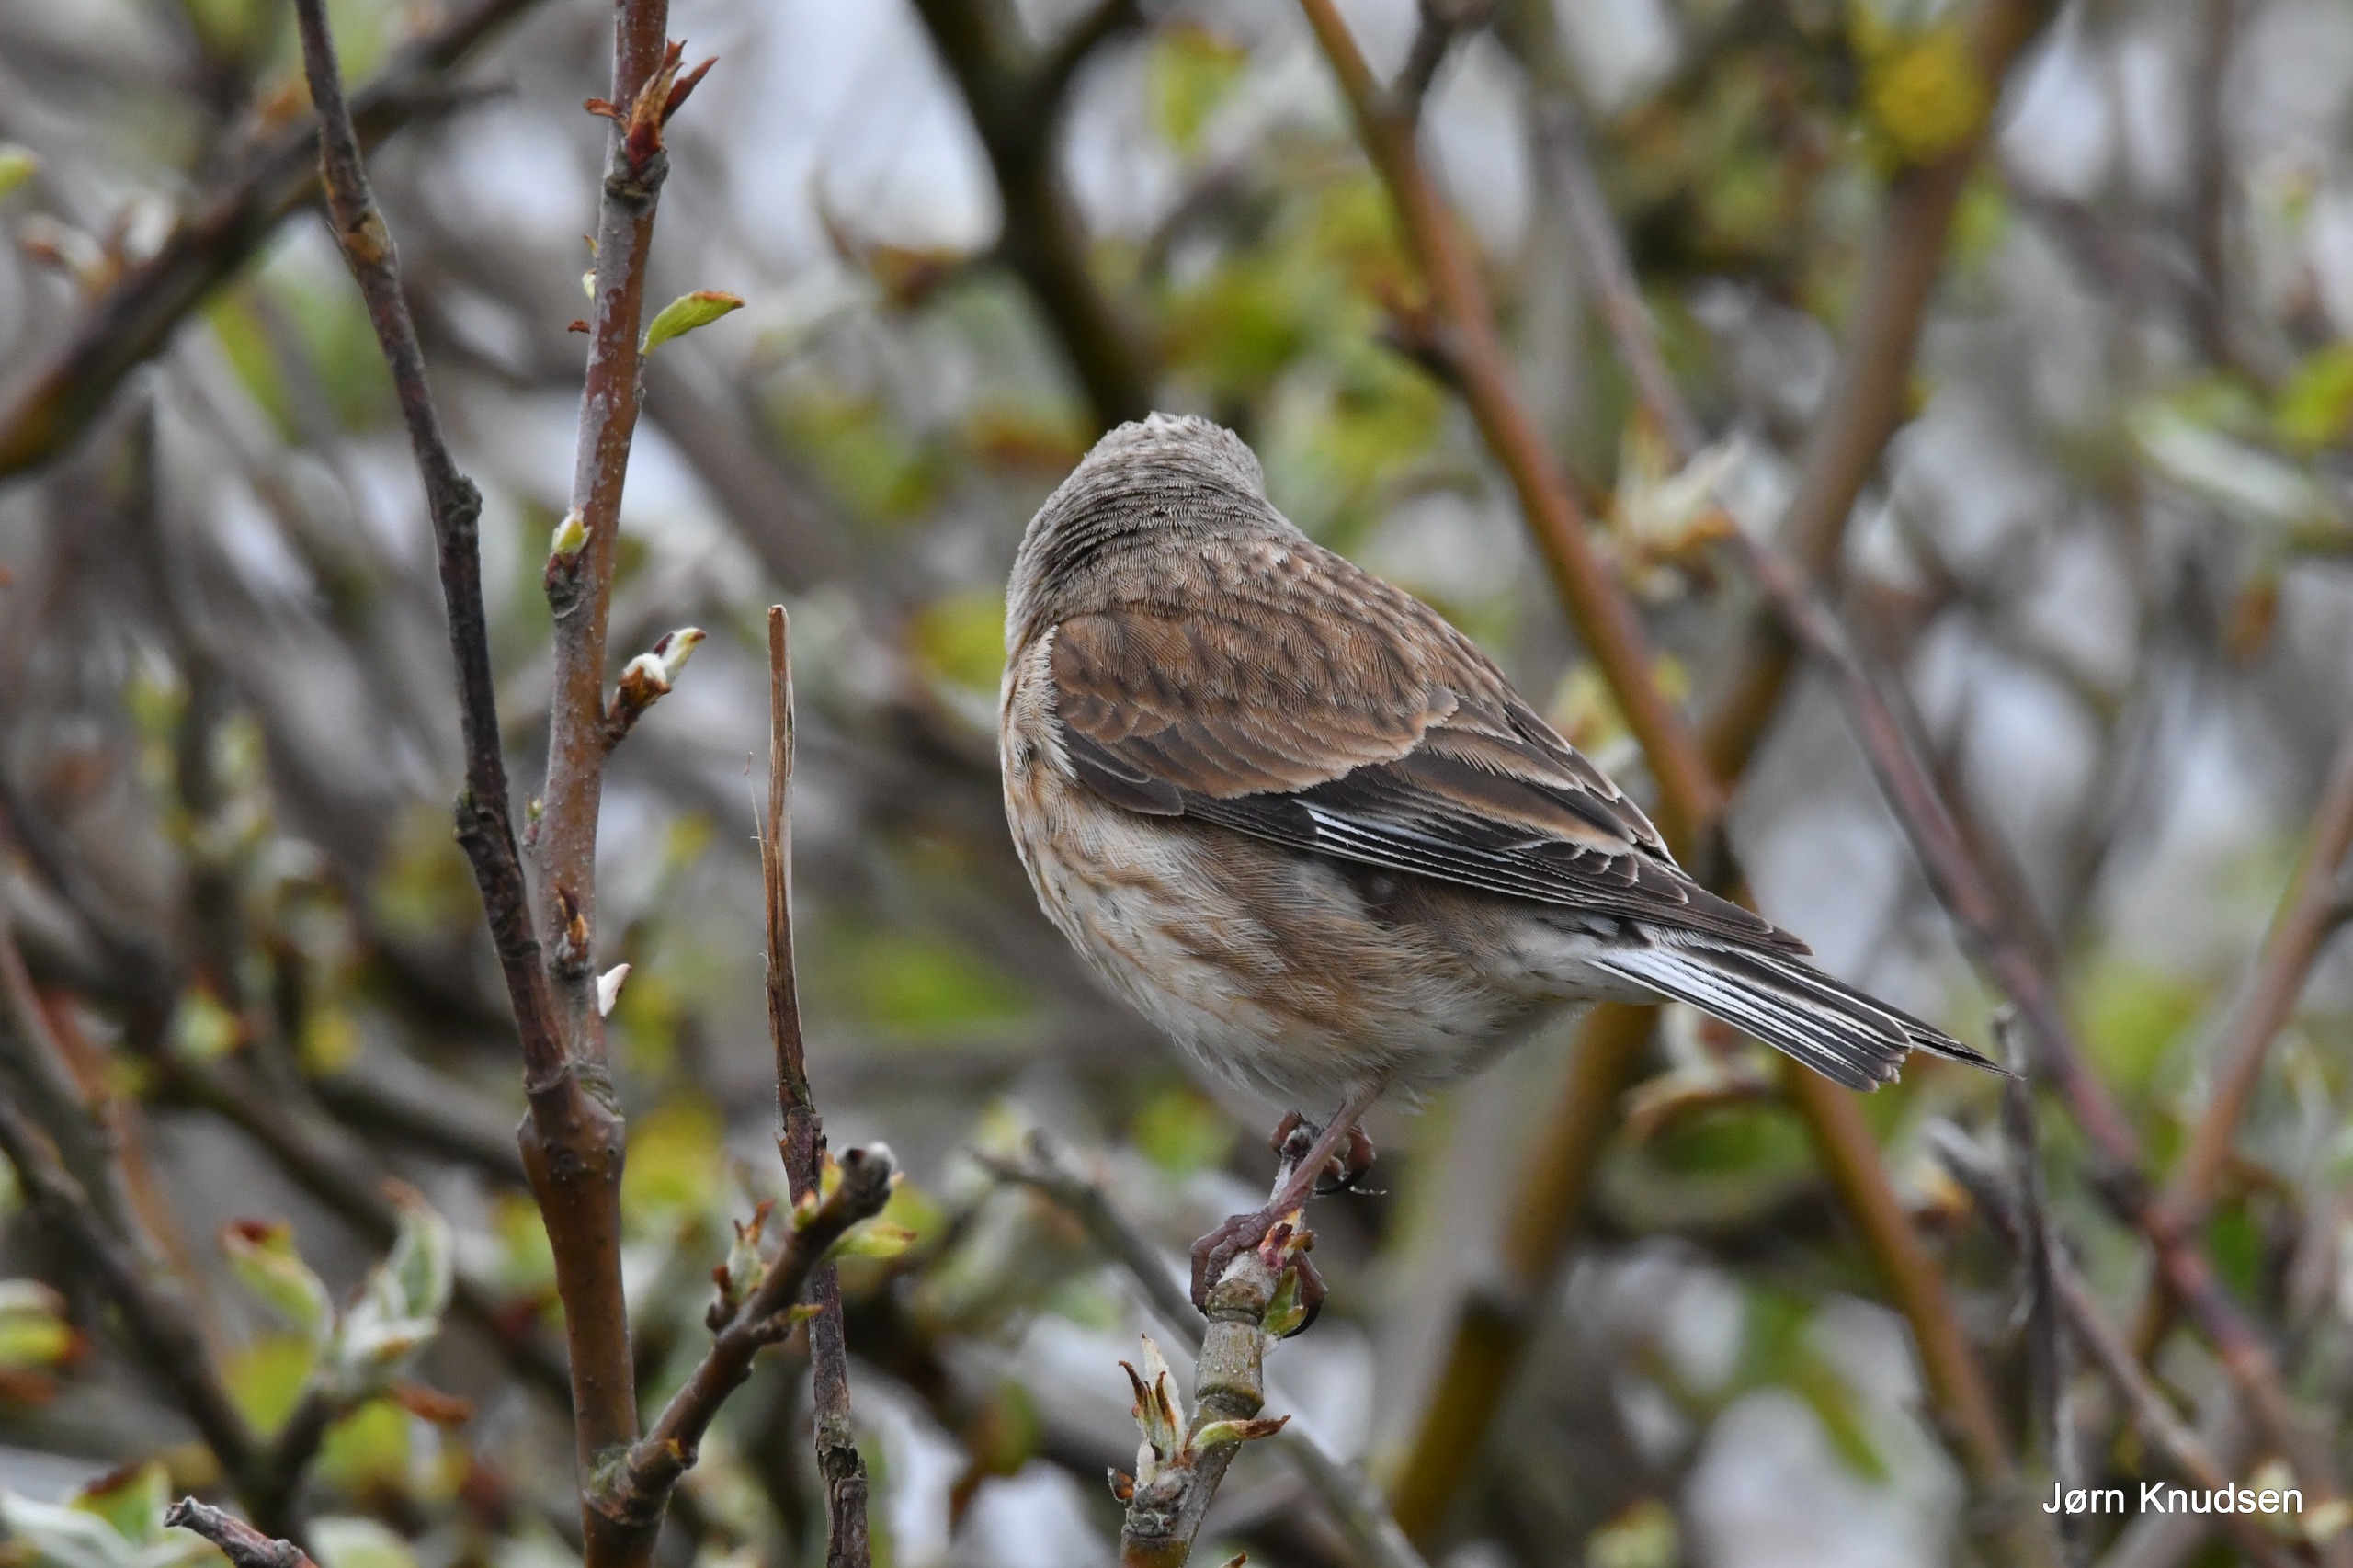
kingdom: Animalia
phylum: Chordata
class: Aves
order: Passeriformes
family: Fringillidae
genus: Linaria
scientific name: Linaria cannabina
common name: Tornirisk
